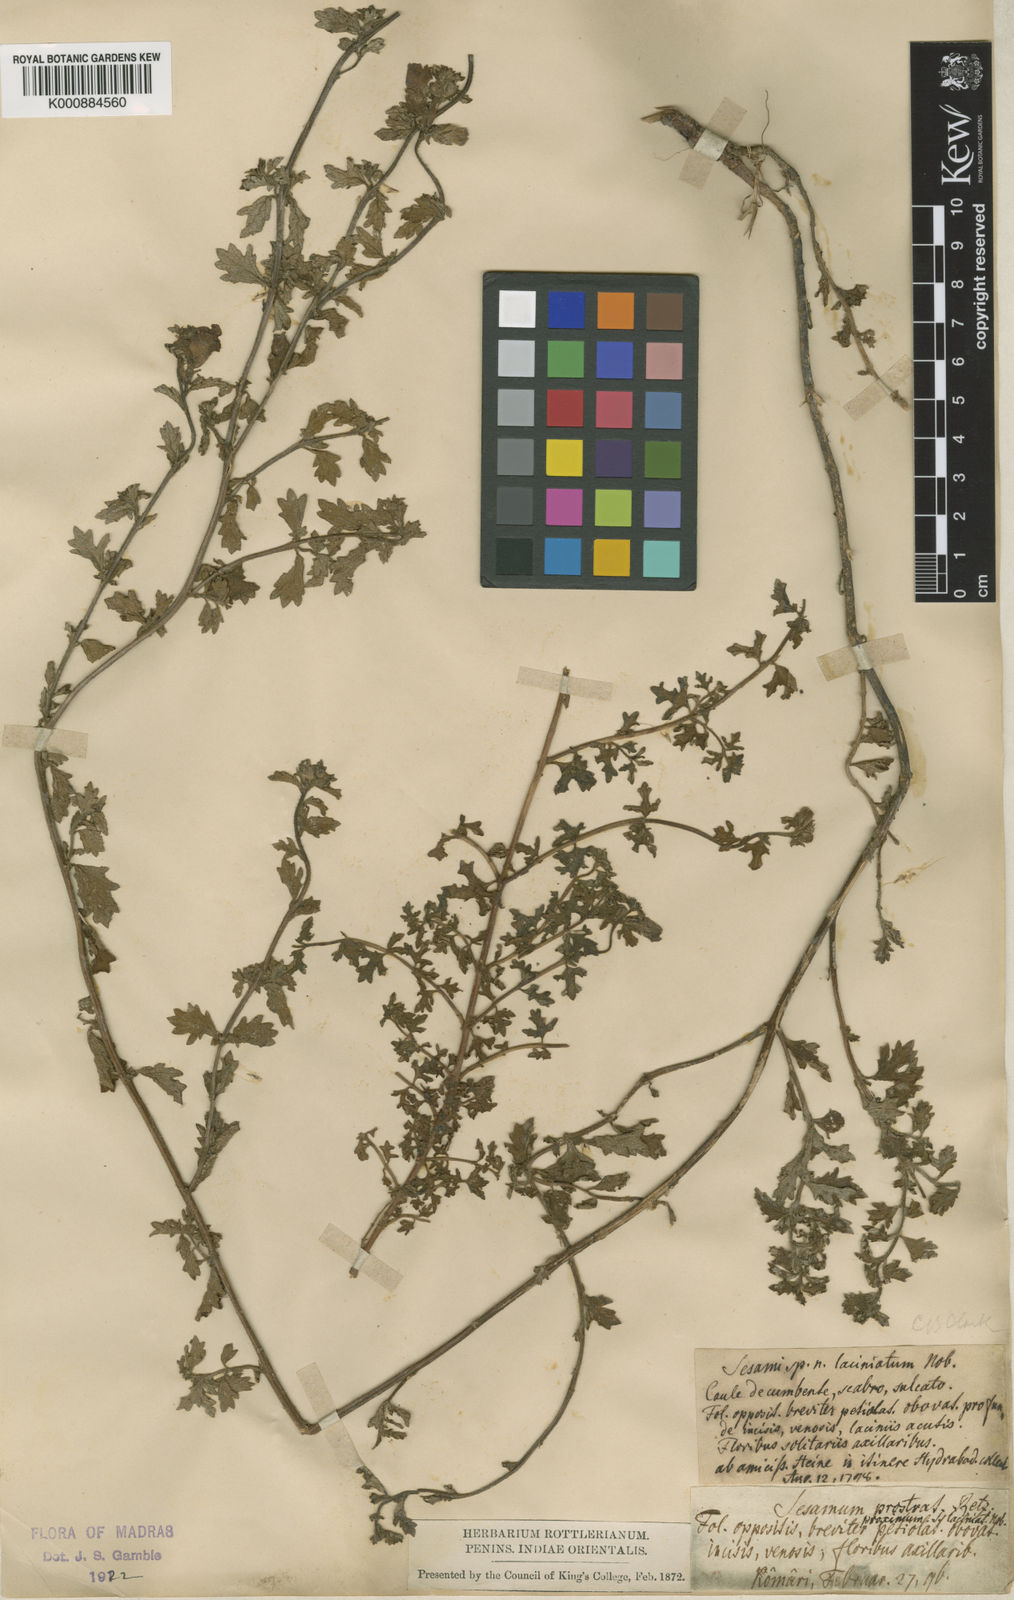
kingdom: Plantae
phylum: Tracheophyta
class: Magnoliopsida
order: Lamiales
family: Pedaliaceae
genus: Sesamum
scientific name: Sesamum prostratum
